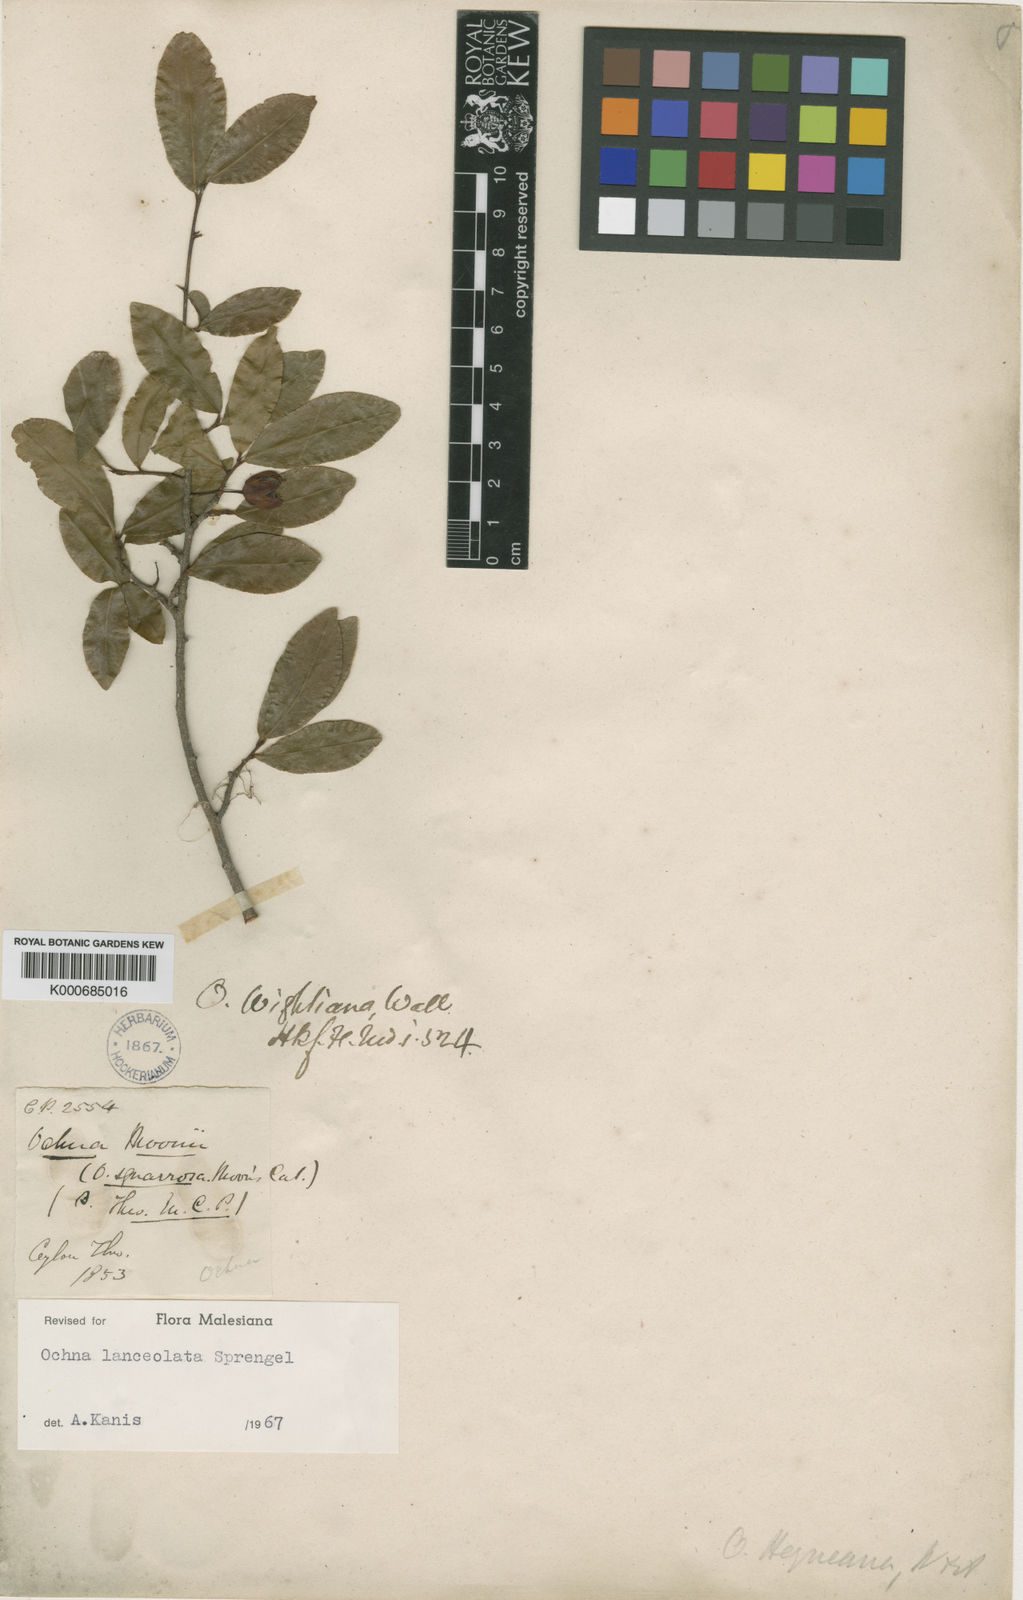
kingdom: Plantae
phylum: Tracheophyta
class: Magnoliopsida
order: Malpighiales
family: Ochnaceae
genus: Ochna
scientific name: Ochna lanceolata
